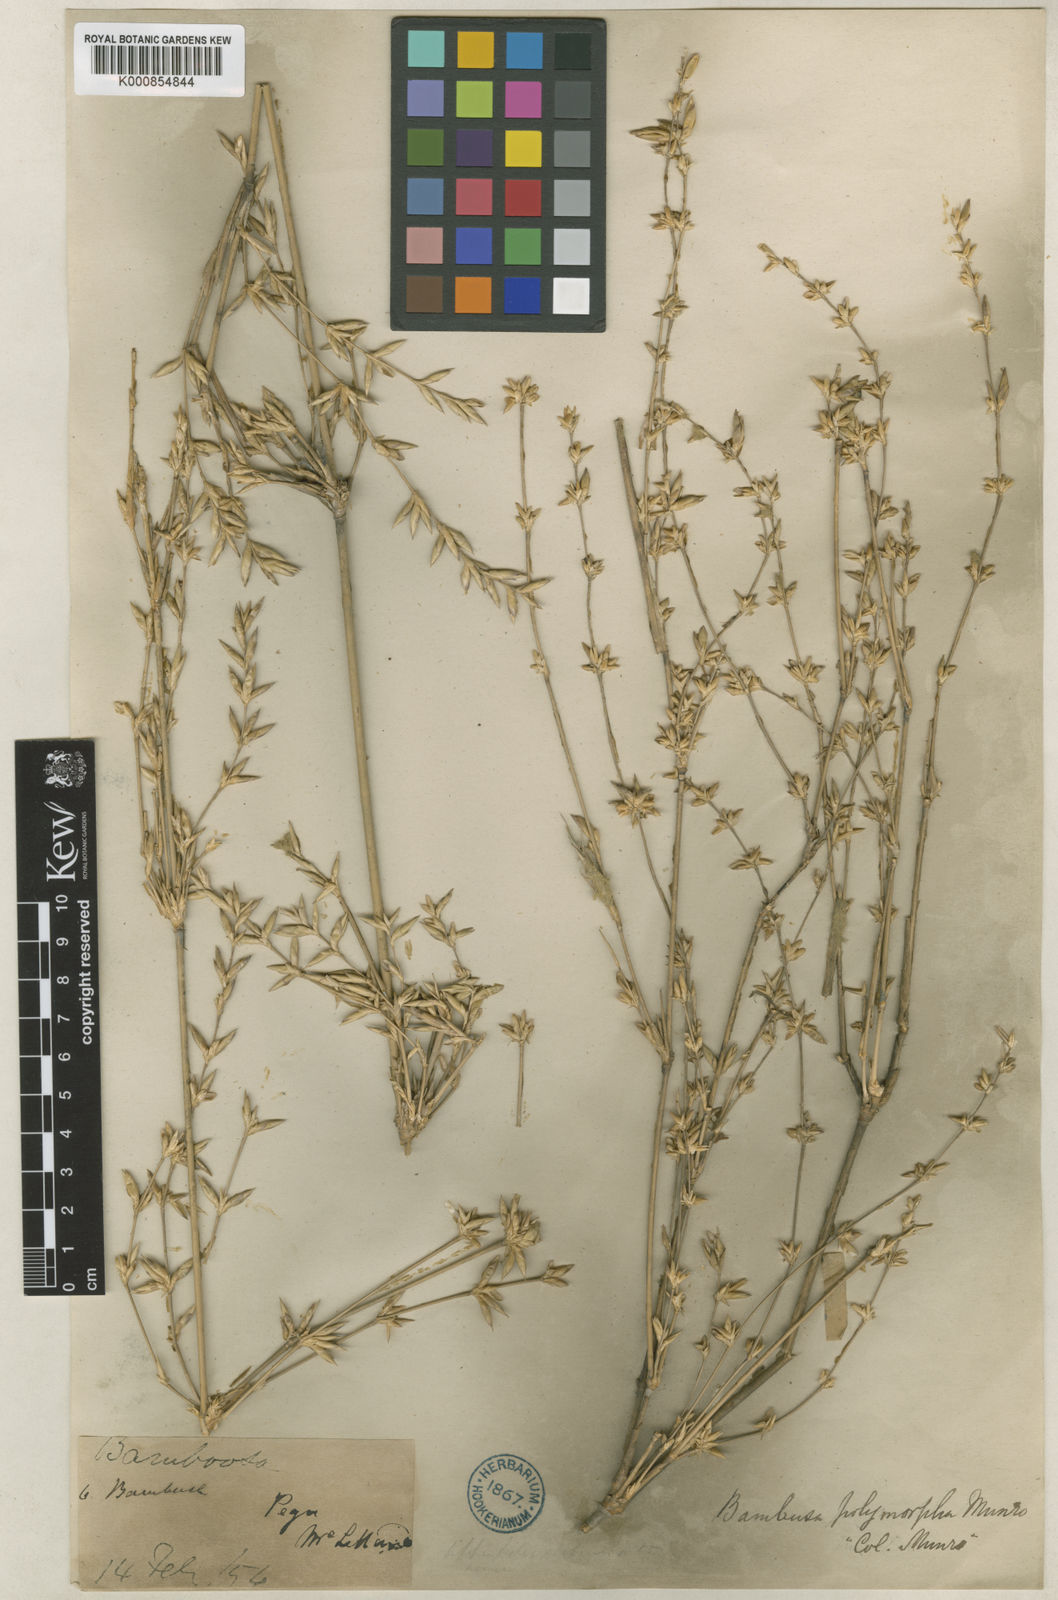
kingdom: Plantae
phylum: Tracheophyta
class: Liliopsida
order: Poales
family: Poaceae
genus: Bambusa
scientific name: Bambusa polymorpha
